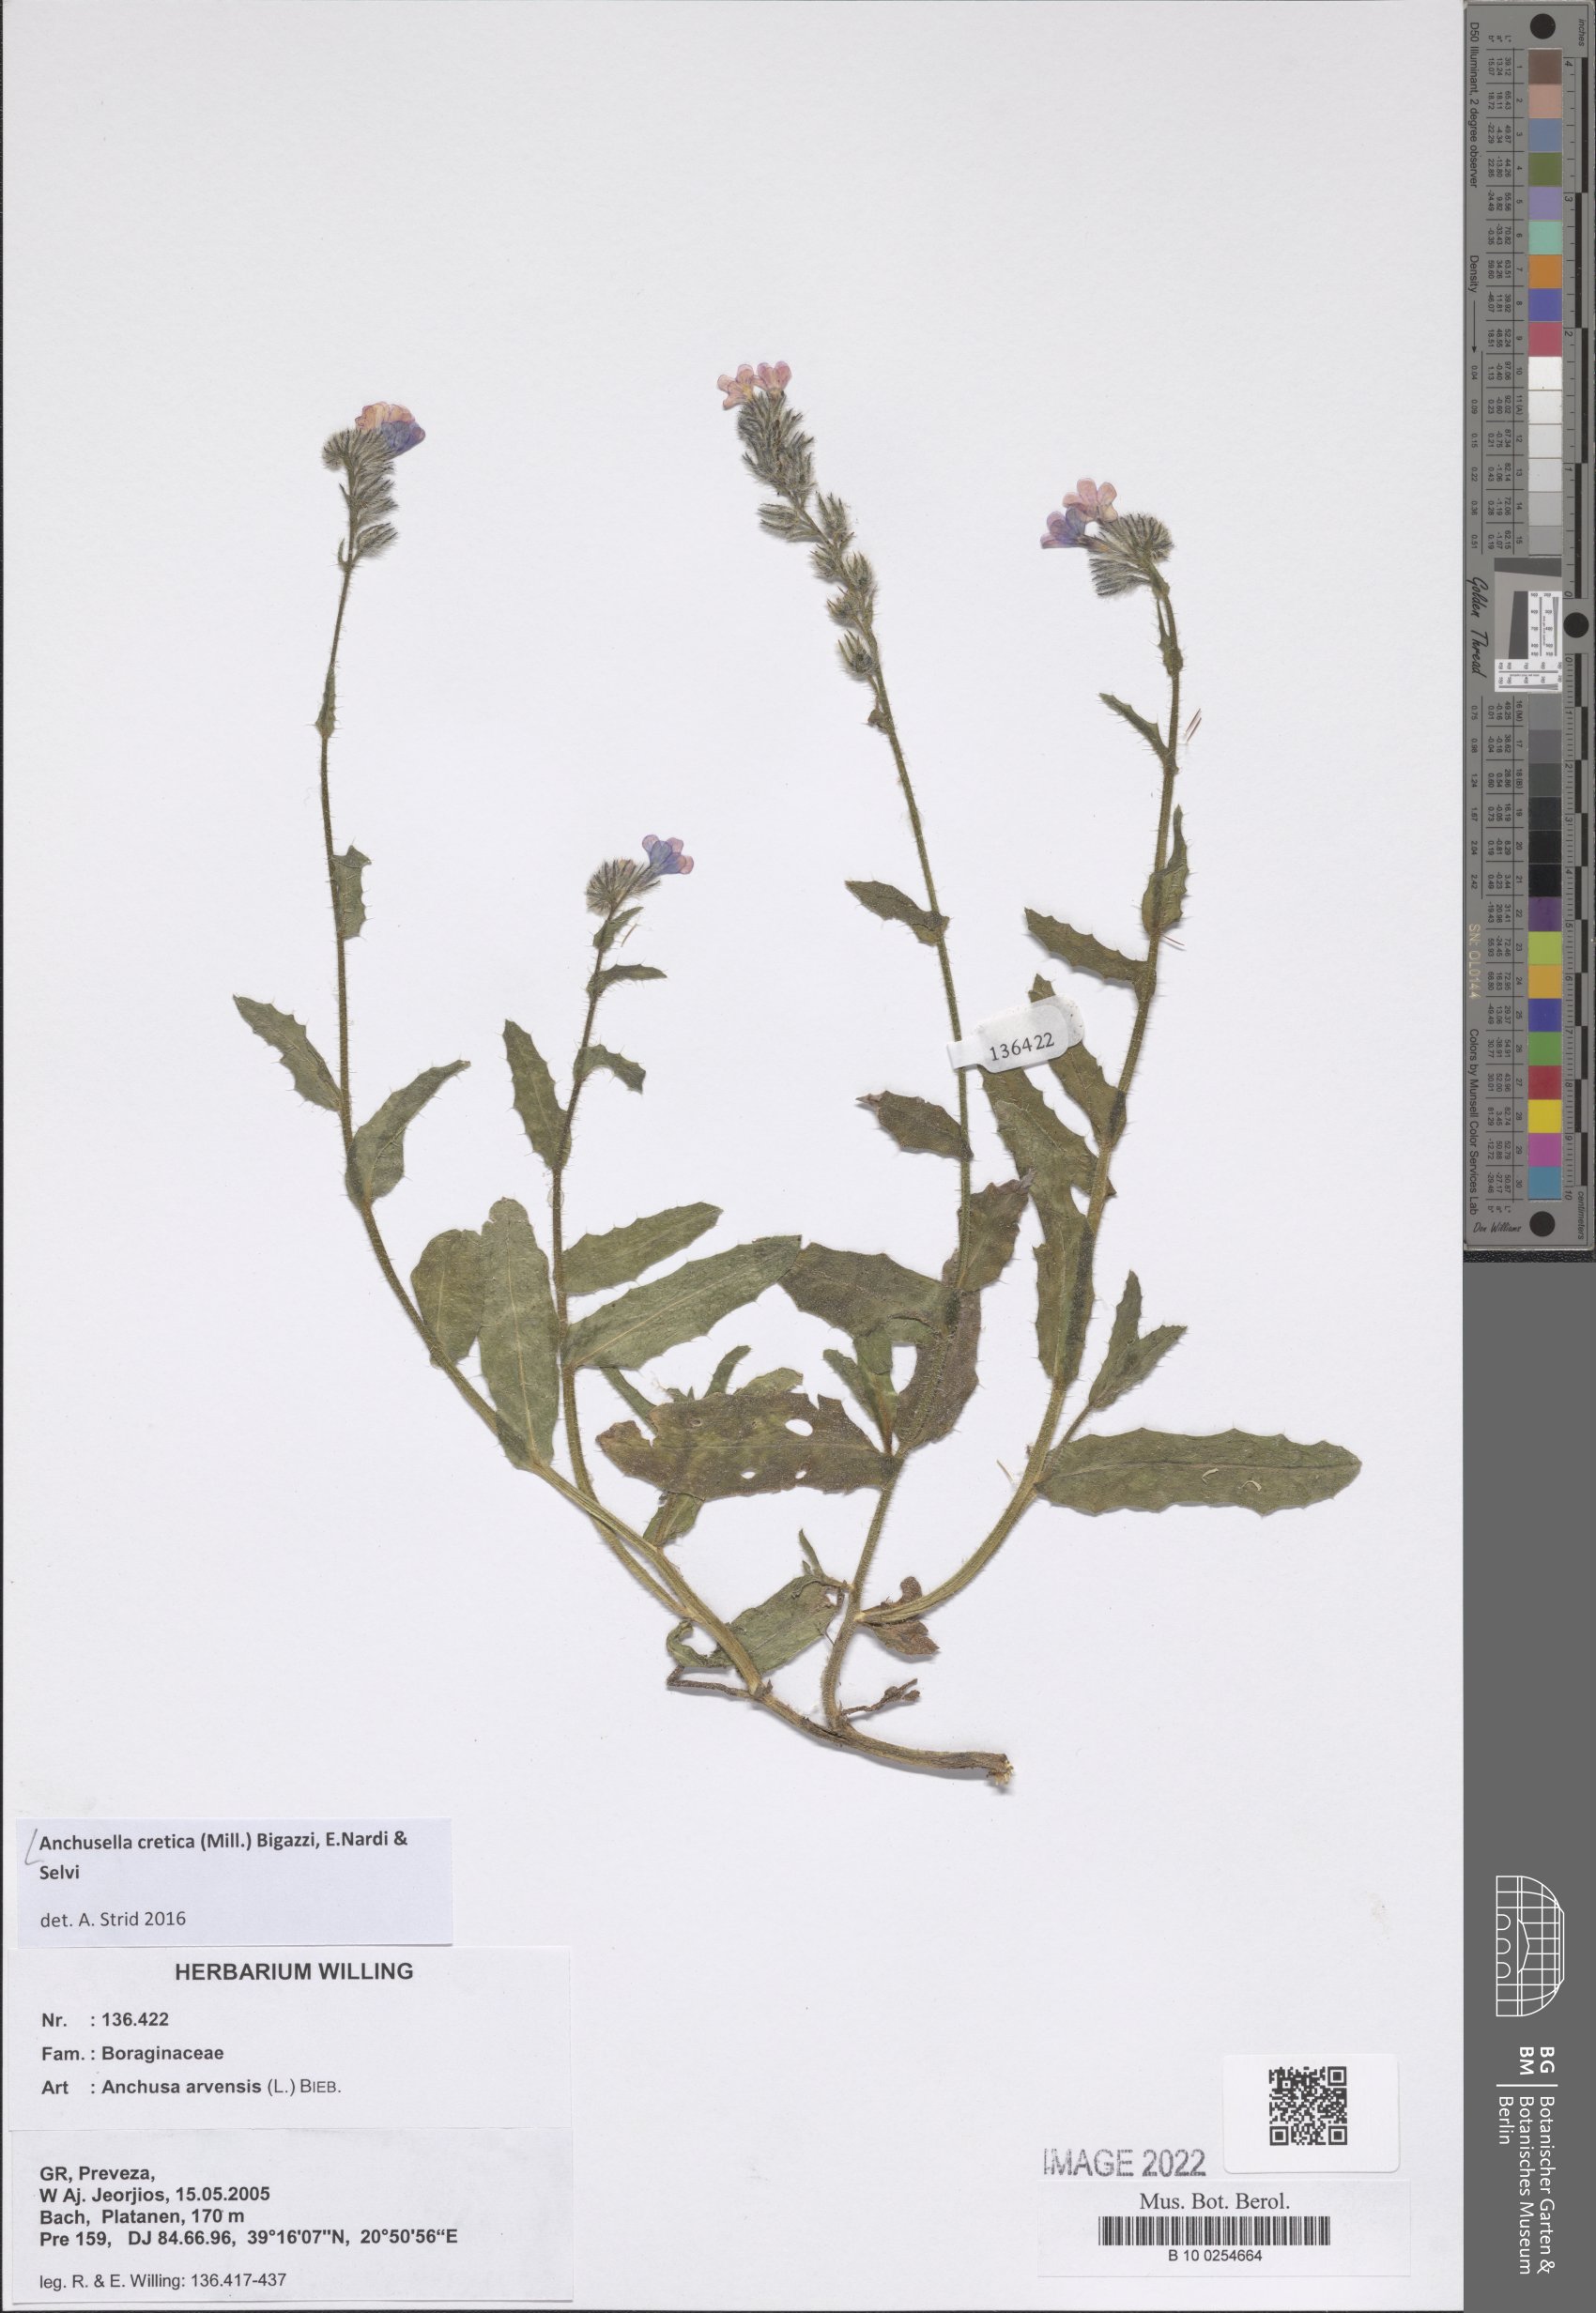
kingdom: Plantae
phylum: Tracheophyta
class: Magnoliopsida
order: Boraginales
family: Boraginaceae
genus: Anchusella
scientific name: Anchusella cretica
